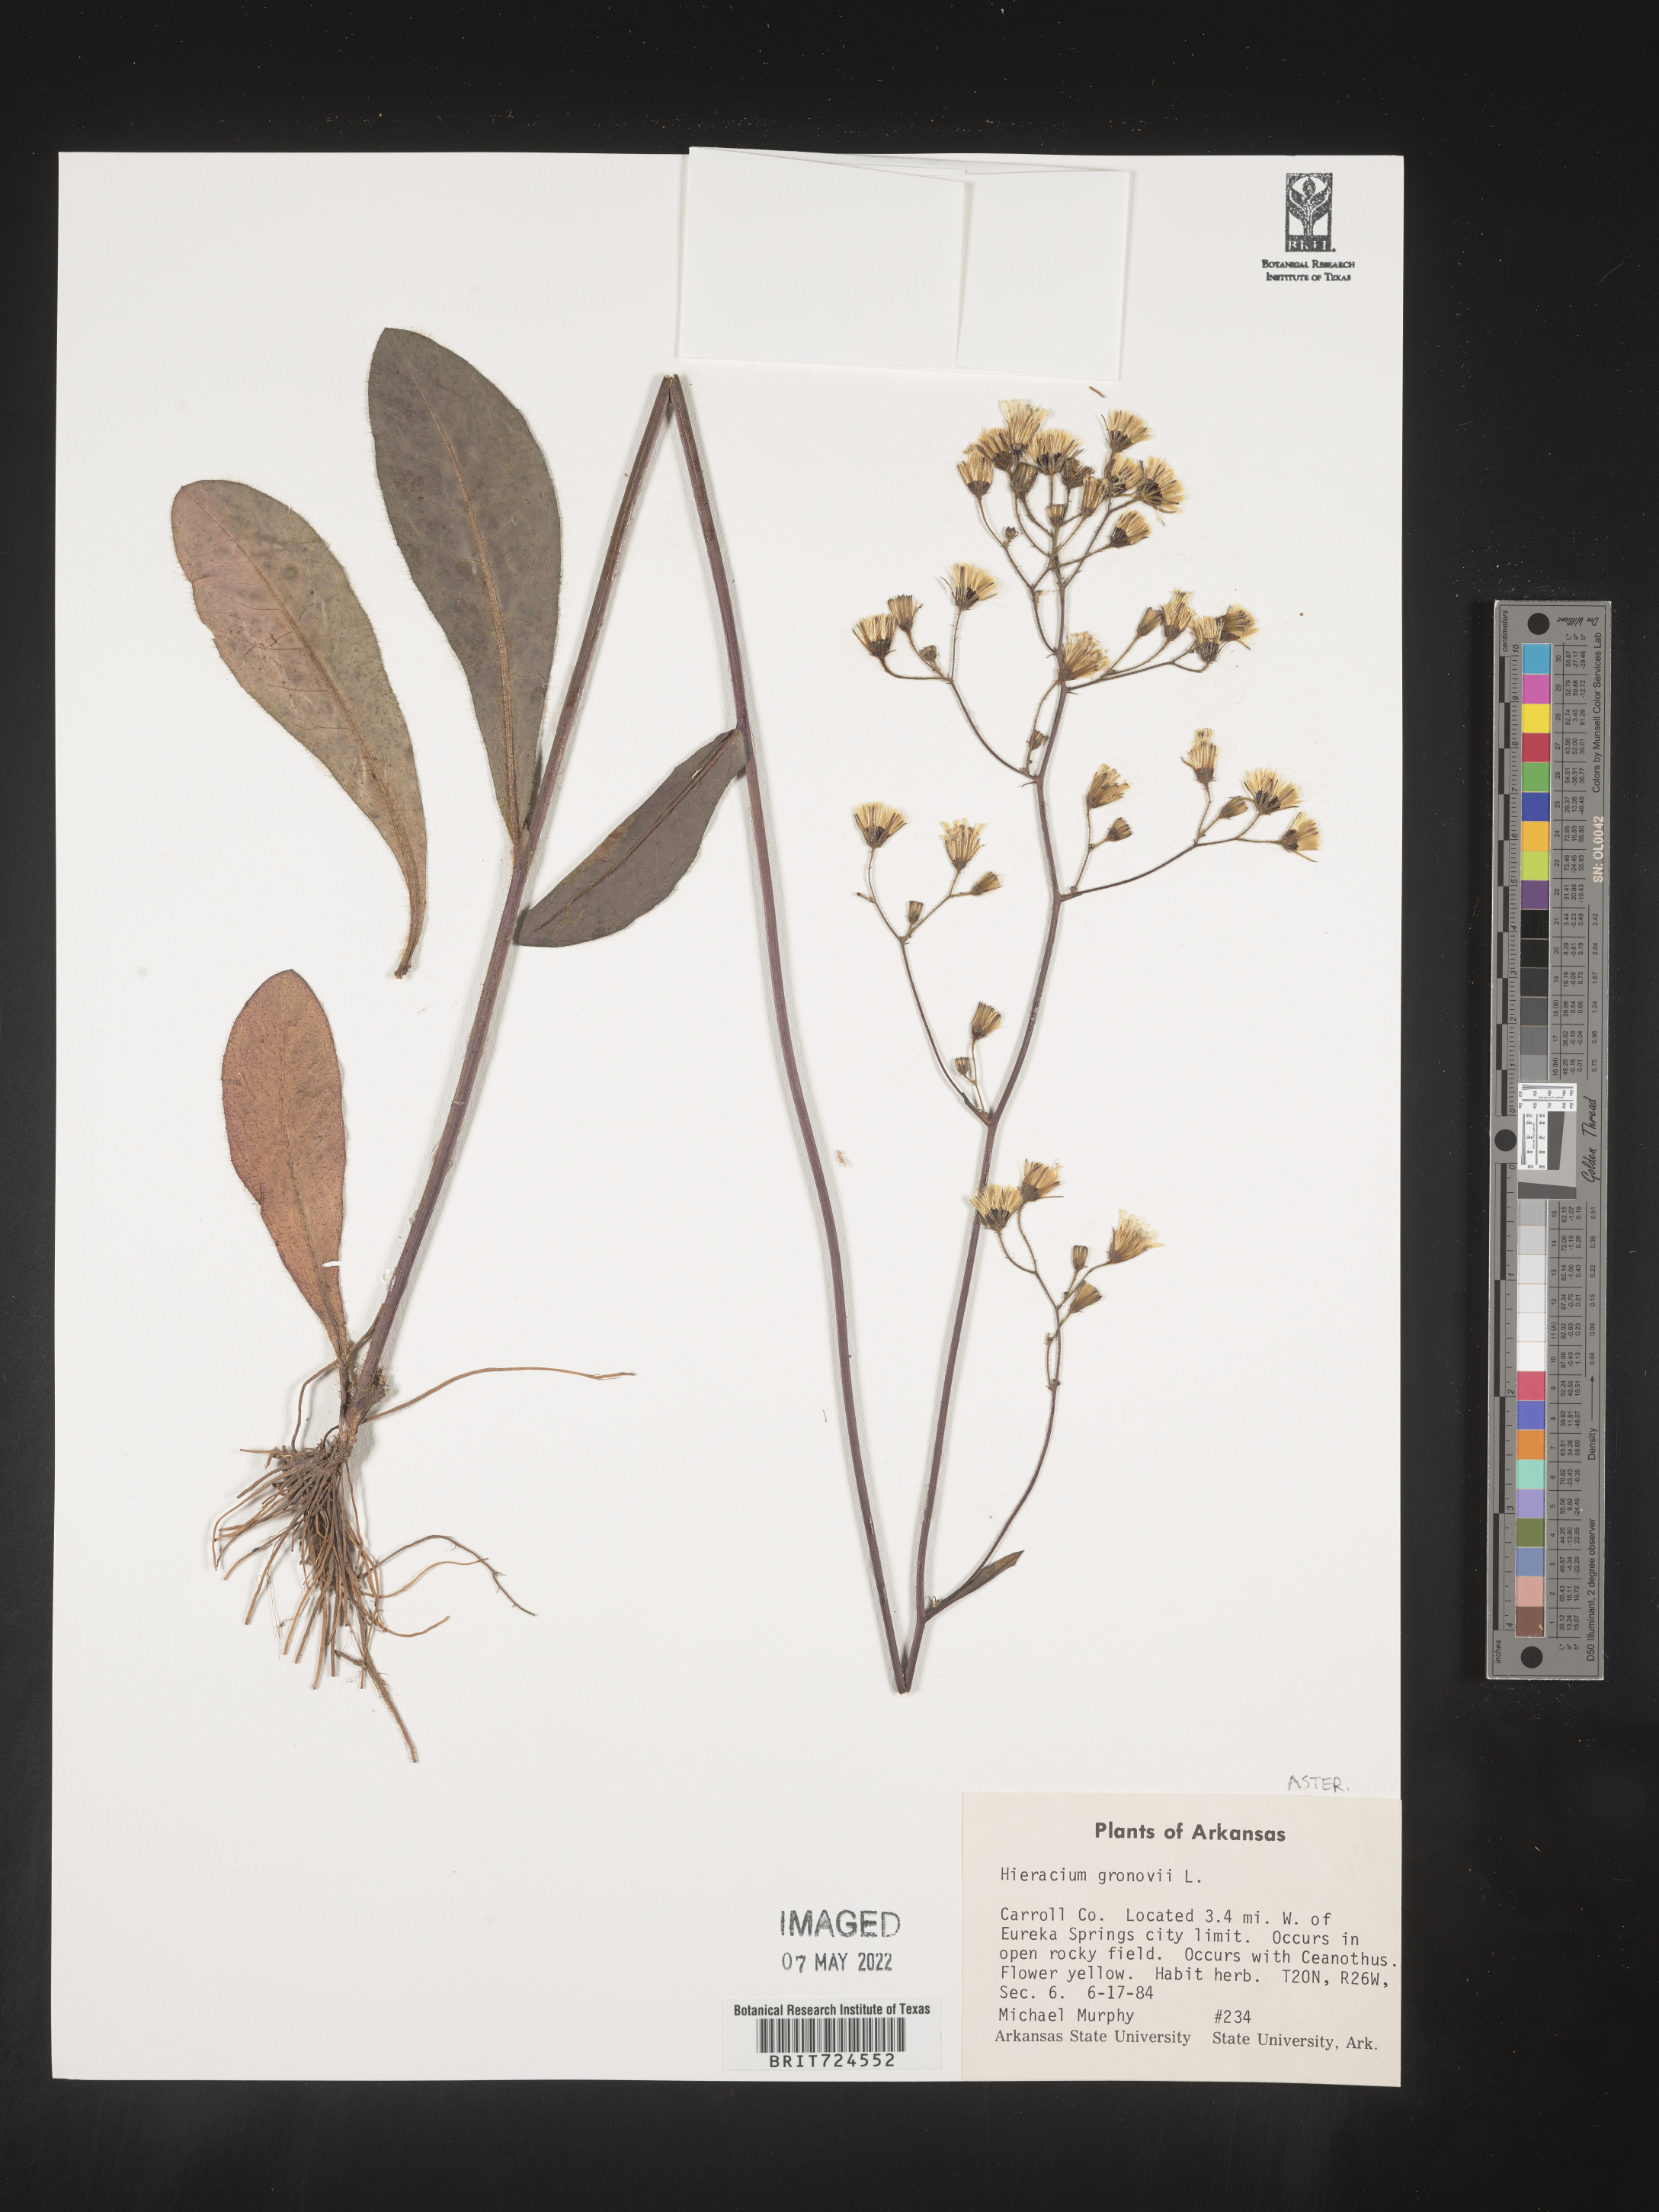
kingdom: Plantae
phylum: Tracheophyta
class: Magnoliopsida
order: Asterales
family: Asteraceae
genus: Hieracium
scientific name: Hieracium gronovii
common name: Beaked hawkweed
